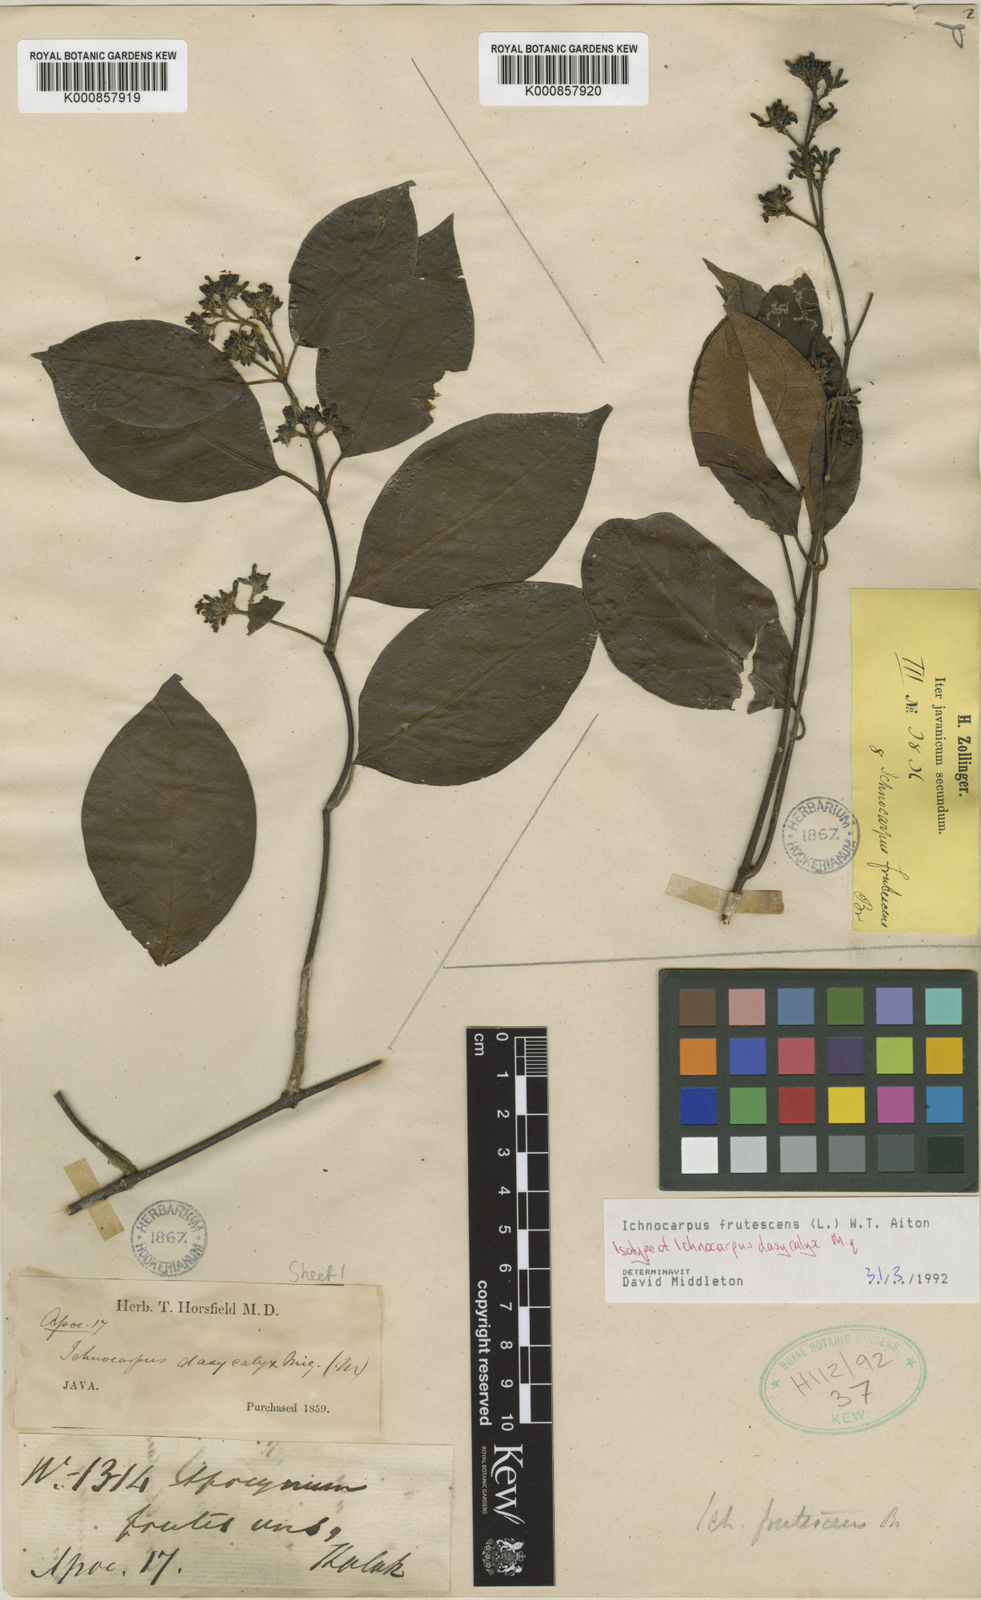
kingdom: Plantae
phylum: Tracheophyta
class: Magnoliopsida
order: Gentianales
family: Apocynaceae
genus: Ichnocarpus
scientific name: Ichnocarpus frutescens
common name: Ichnocarpus
